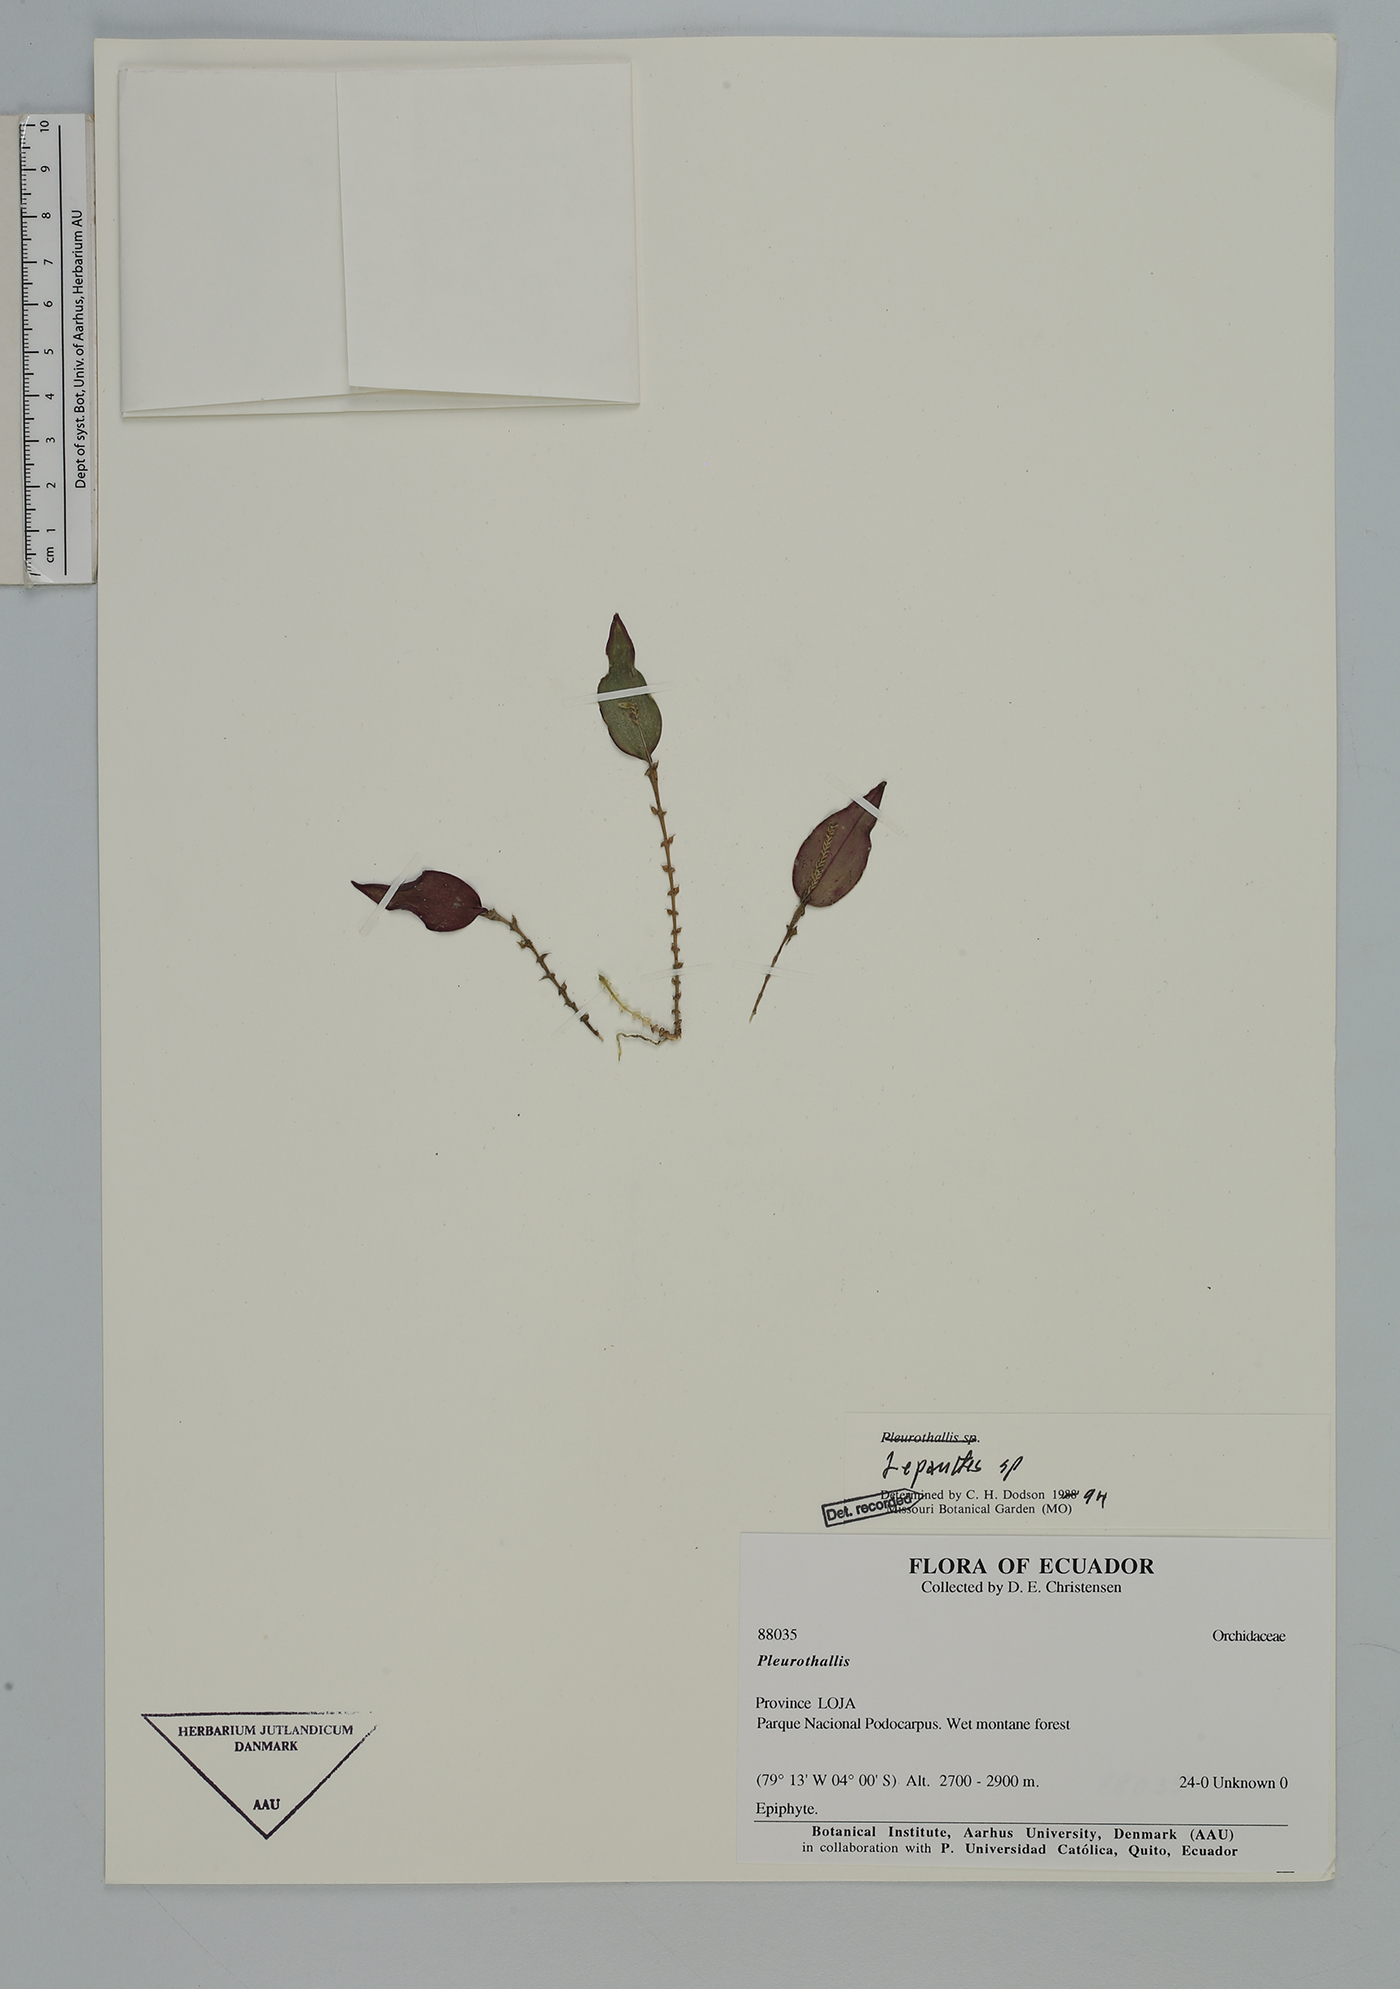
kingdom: Plantae
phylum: Tracheophyta
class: Liliopsida
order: Asparagales
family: Orchidaceae
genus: Lepanthes
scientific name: Lepanthes
